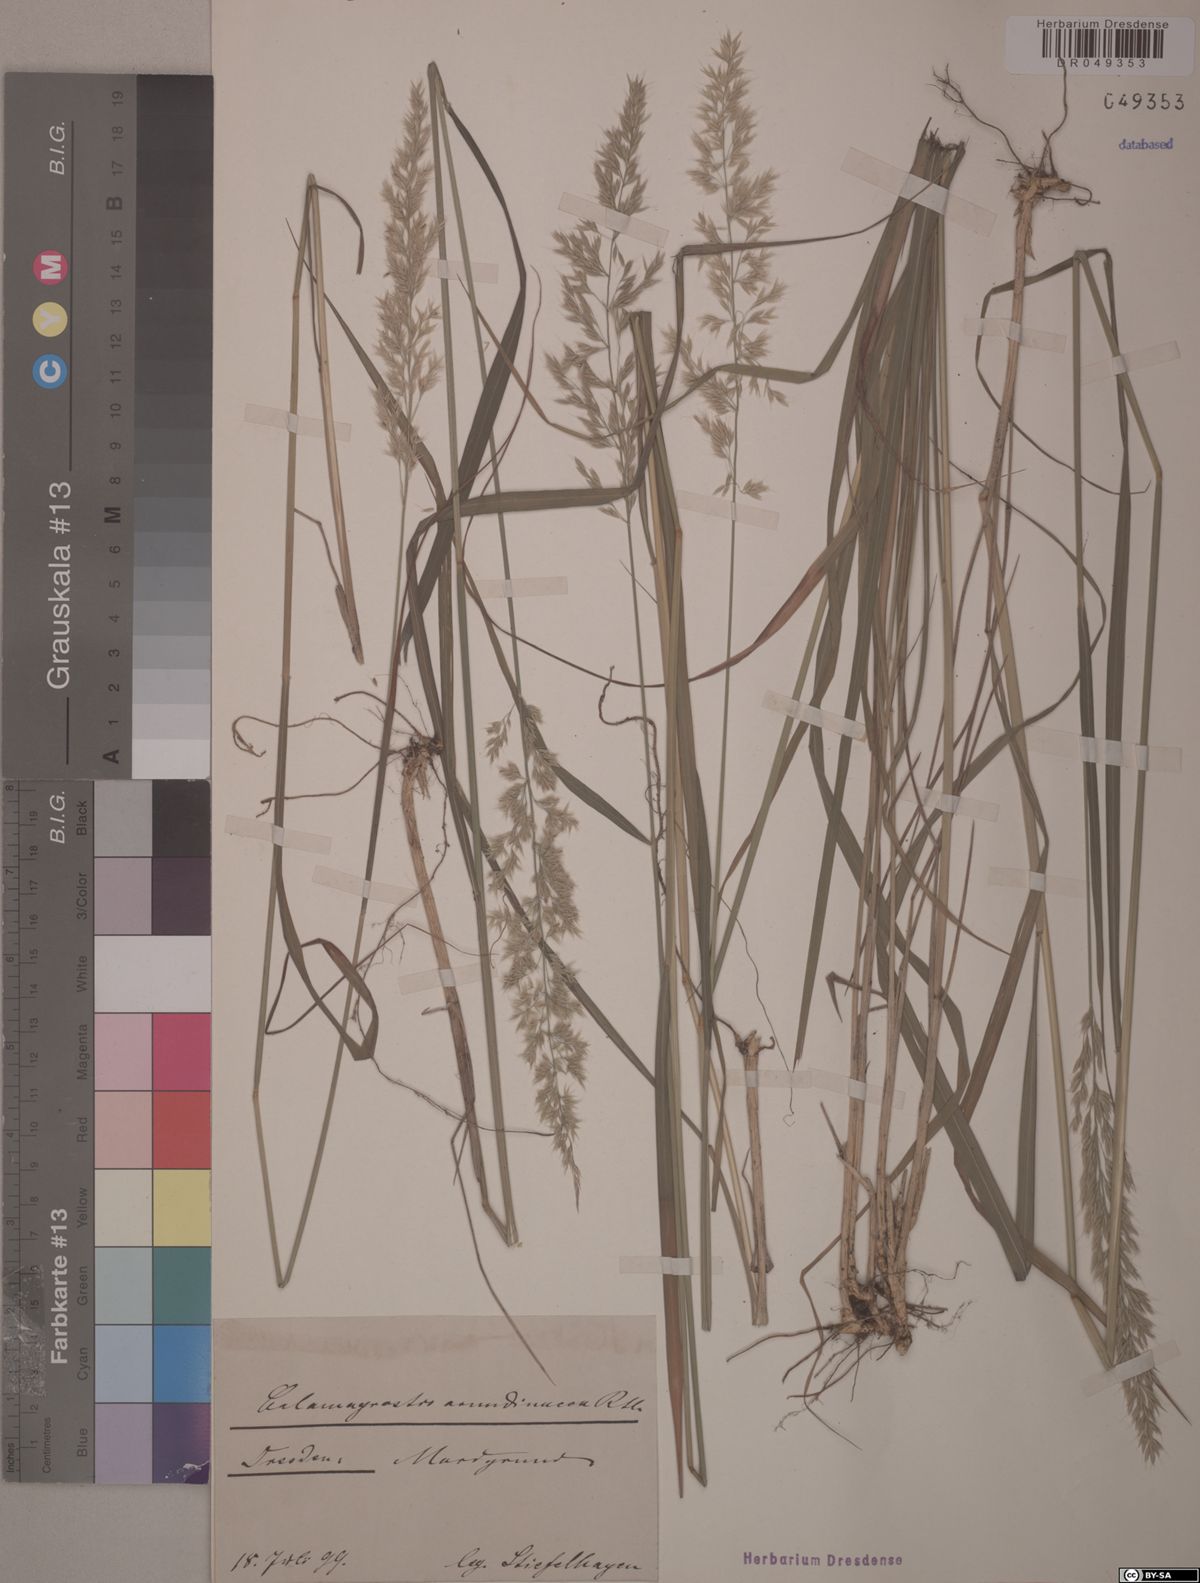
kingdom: Plantae
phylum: Tracheophyta
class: Liliopsida
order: Poales
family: Poaceae
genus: Calamagrostis
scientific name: Calamagrostis arundinacea
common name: Metskastik
